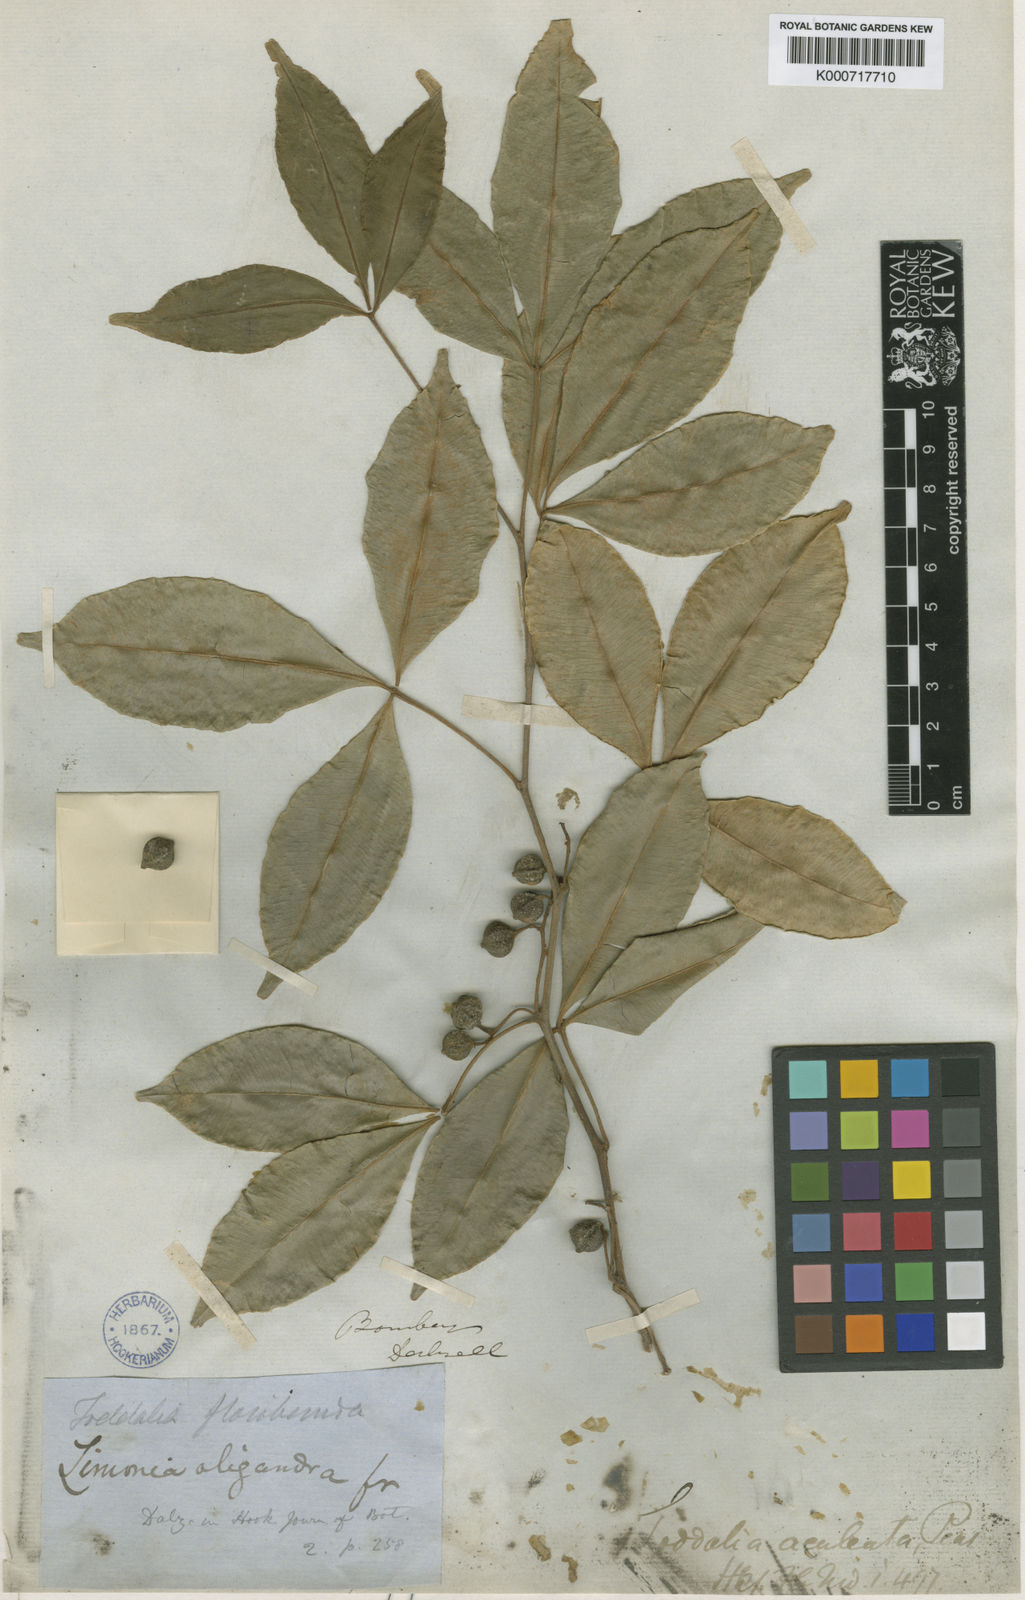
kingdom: Plantae
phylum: Tracheophyta
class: Magnoliopsida
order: Sapindales
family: Rutaceae
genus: Zanthoxylum
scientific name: Zanthoxylum asiaticum
